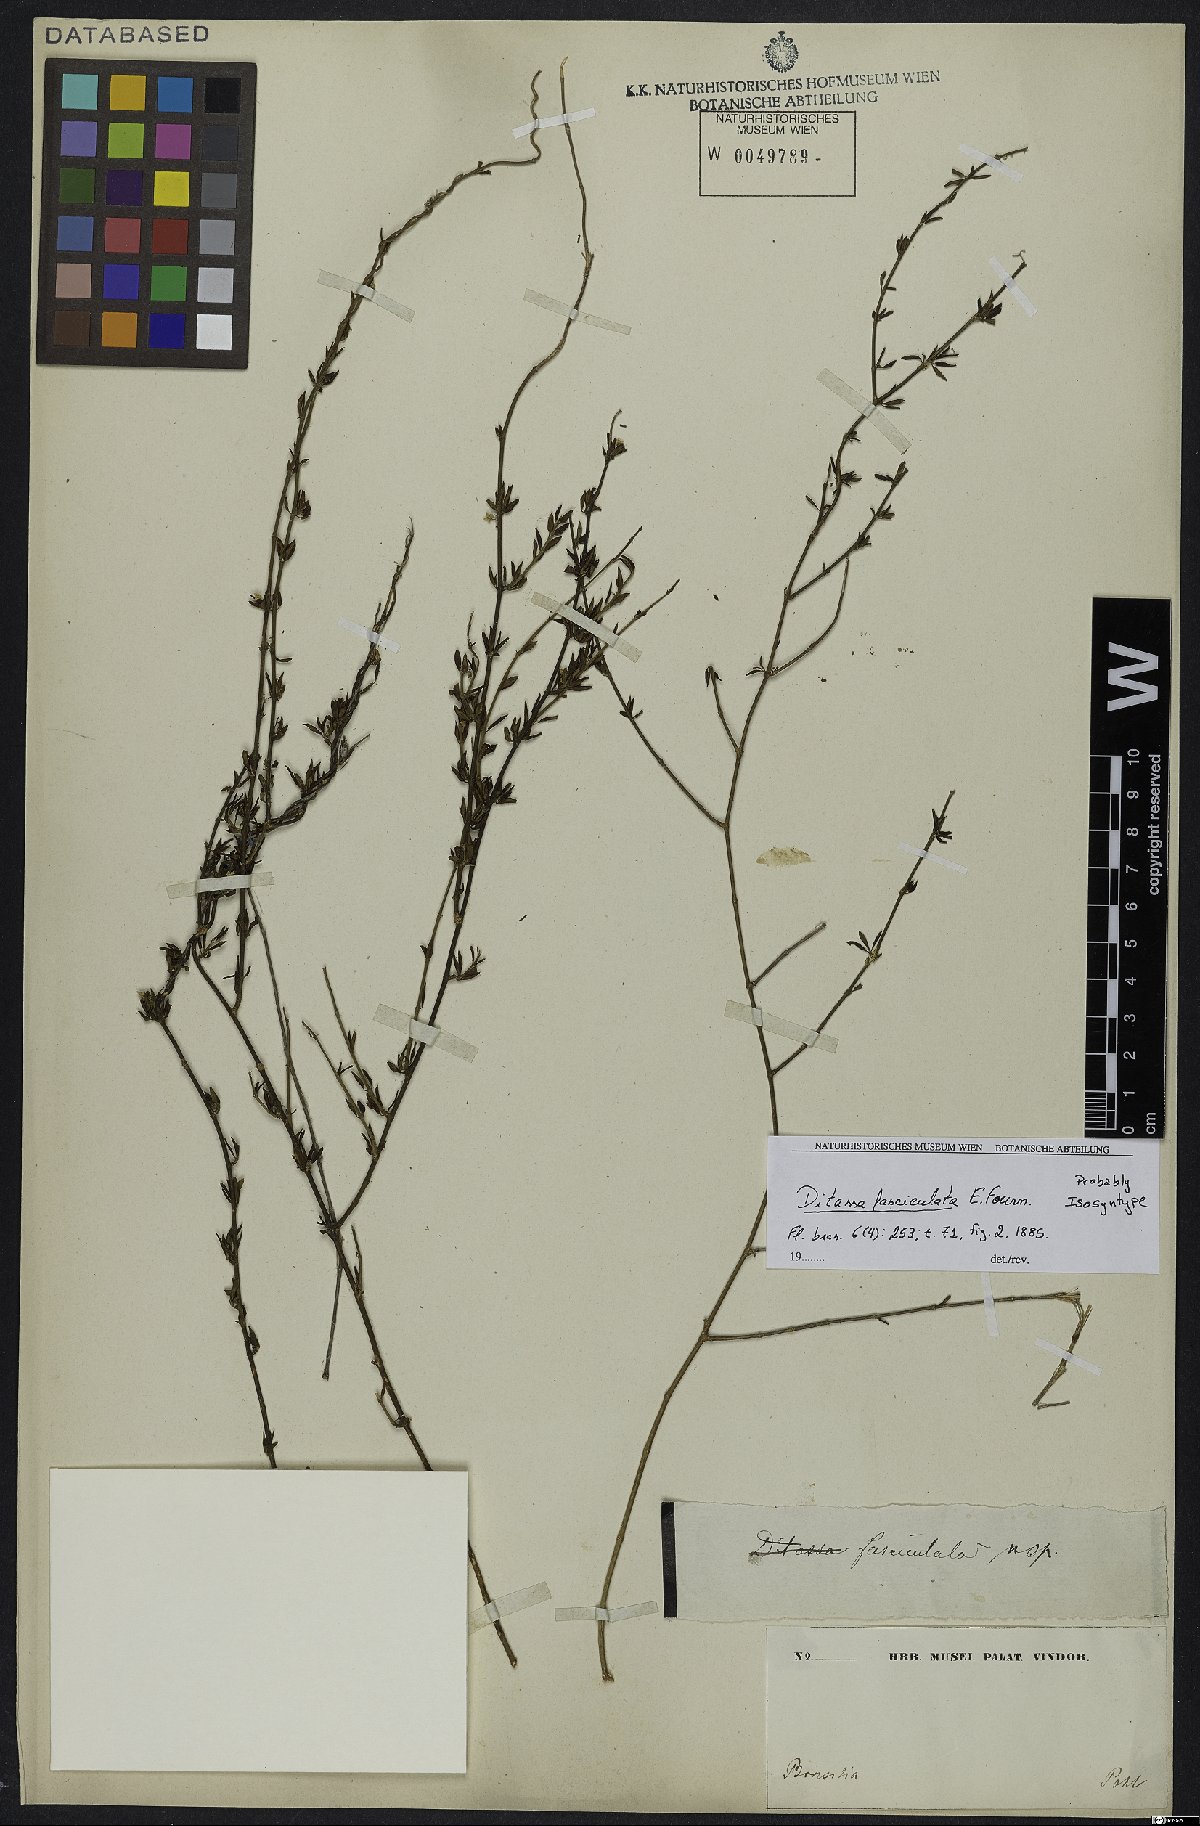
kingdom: Plantae
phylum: Tracheophyta
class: Magnoliopsida
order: Gentianales
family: Apocynaceae
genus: Ditassa
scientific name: Ditassa fasciculata
